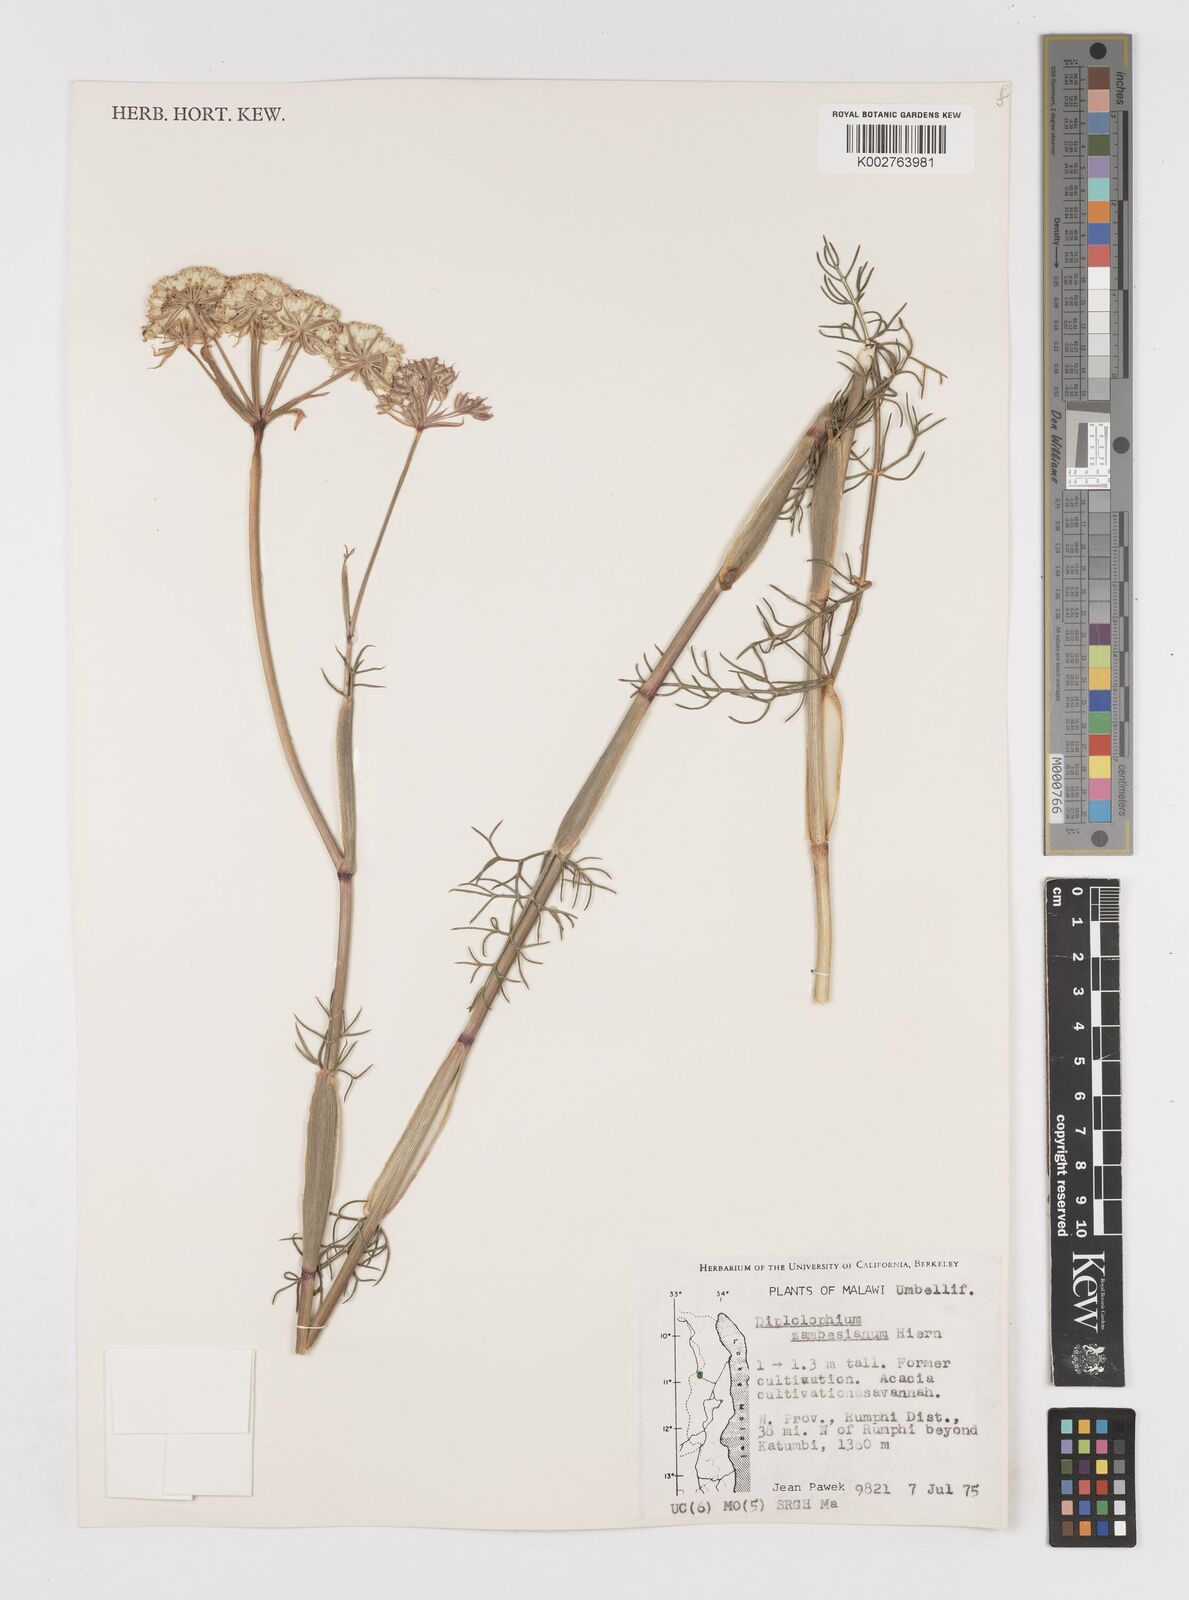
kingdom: Plantae
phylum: Tracheophyta
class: Magnoliopsida
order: Apiales
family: Apiaceae
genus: Diplolophium
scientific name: Diplolophium zambesianum
